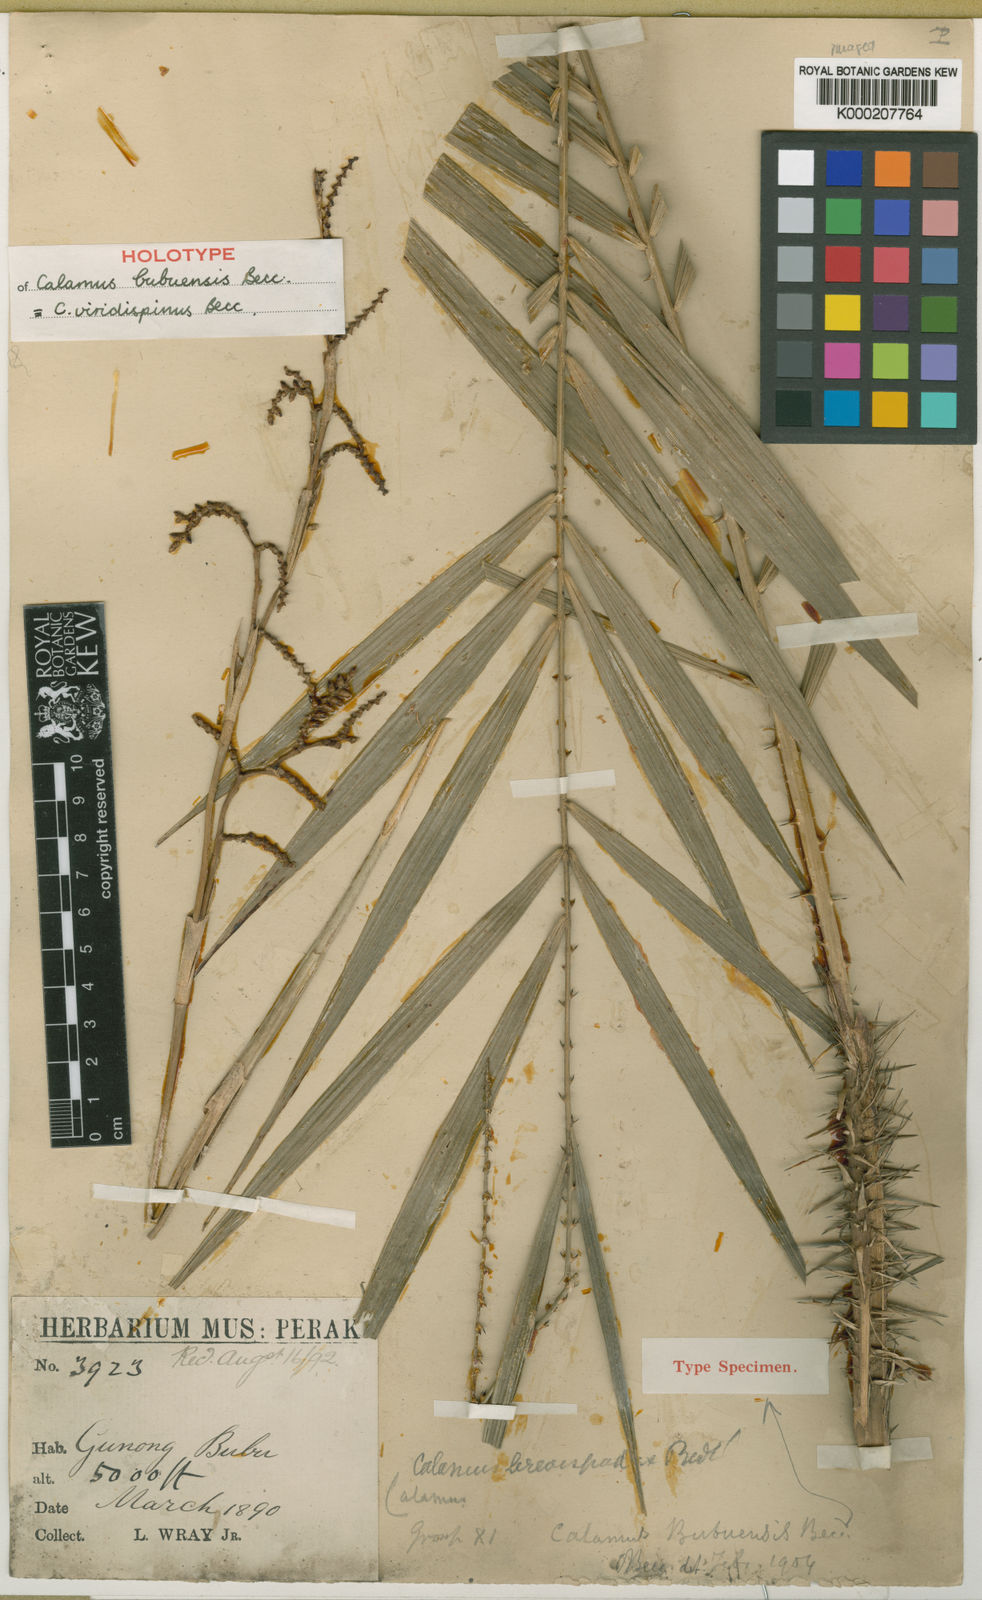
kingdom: Plantae
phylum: Tracheophyta
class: Liliopsida
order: Arecales
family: Arecaceae
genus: Calamus
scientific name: Calamus helferianus
